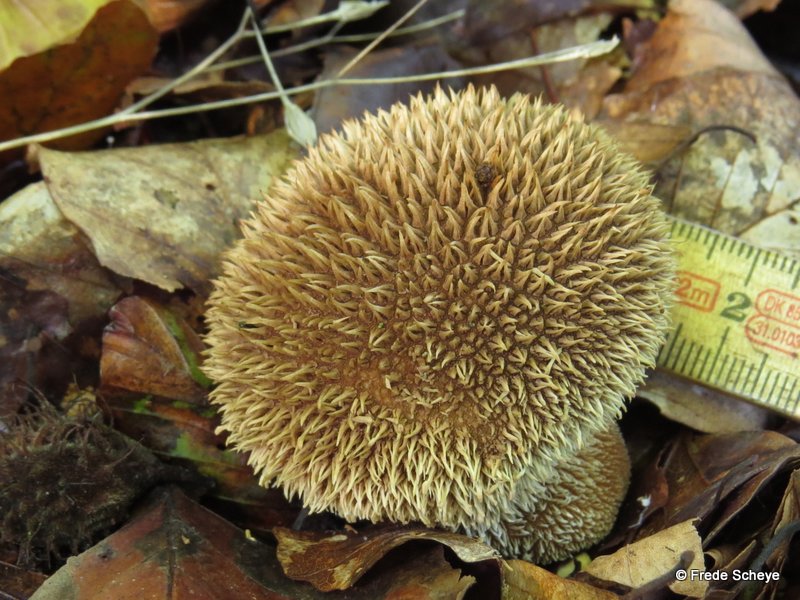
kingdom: Fungi
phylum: Basidiomycota
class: Agaricomycetes
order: Agaricales
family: Lycoperdaceae
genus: Lycoperdon
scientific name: Lycoperdon echinatum
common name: pindsvine-støvbold
